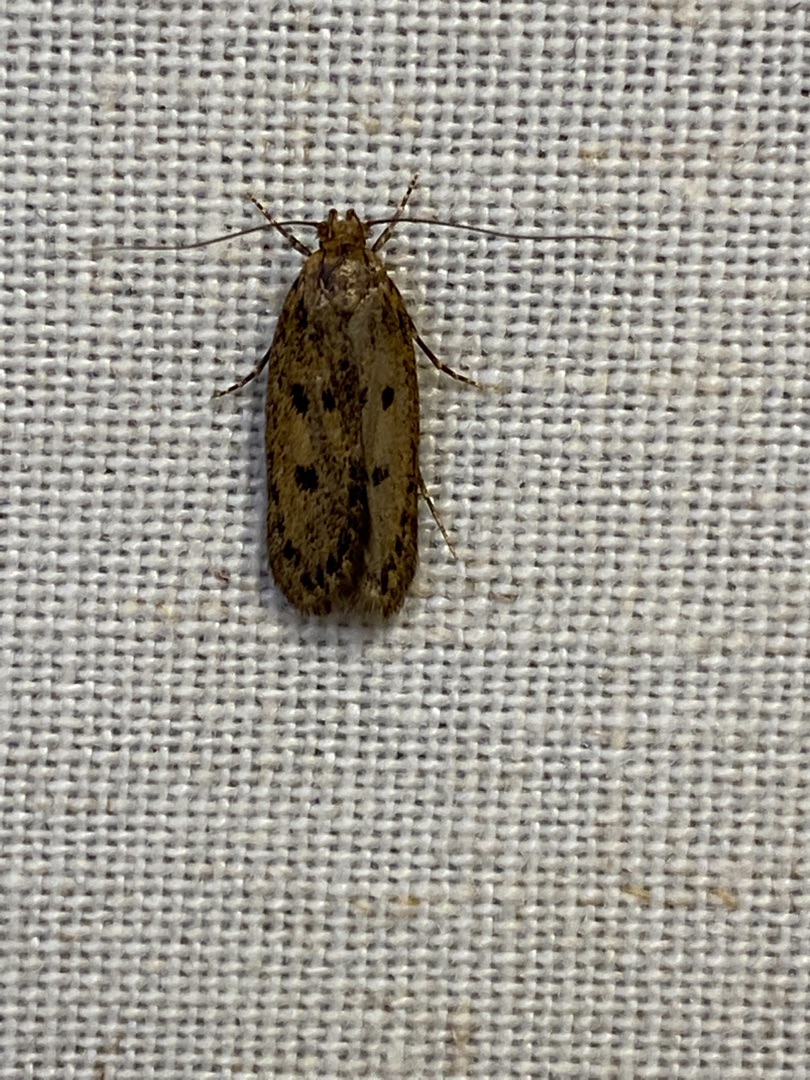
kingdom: Animalia
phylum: Arthropoda
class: Insecta
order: Lepidoptera
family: Oecophoridae
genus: Hofmannophila
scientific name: Hofmannophila pseudospretella
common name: Frømøl
